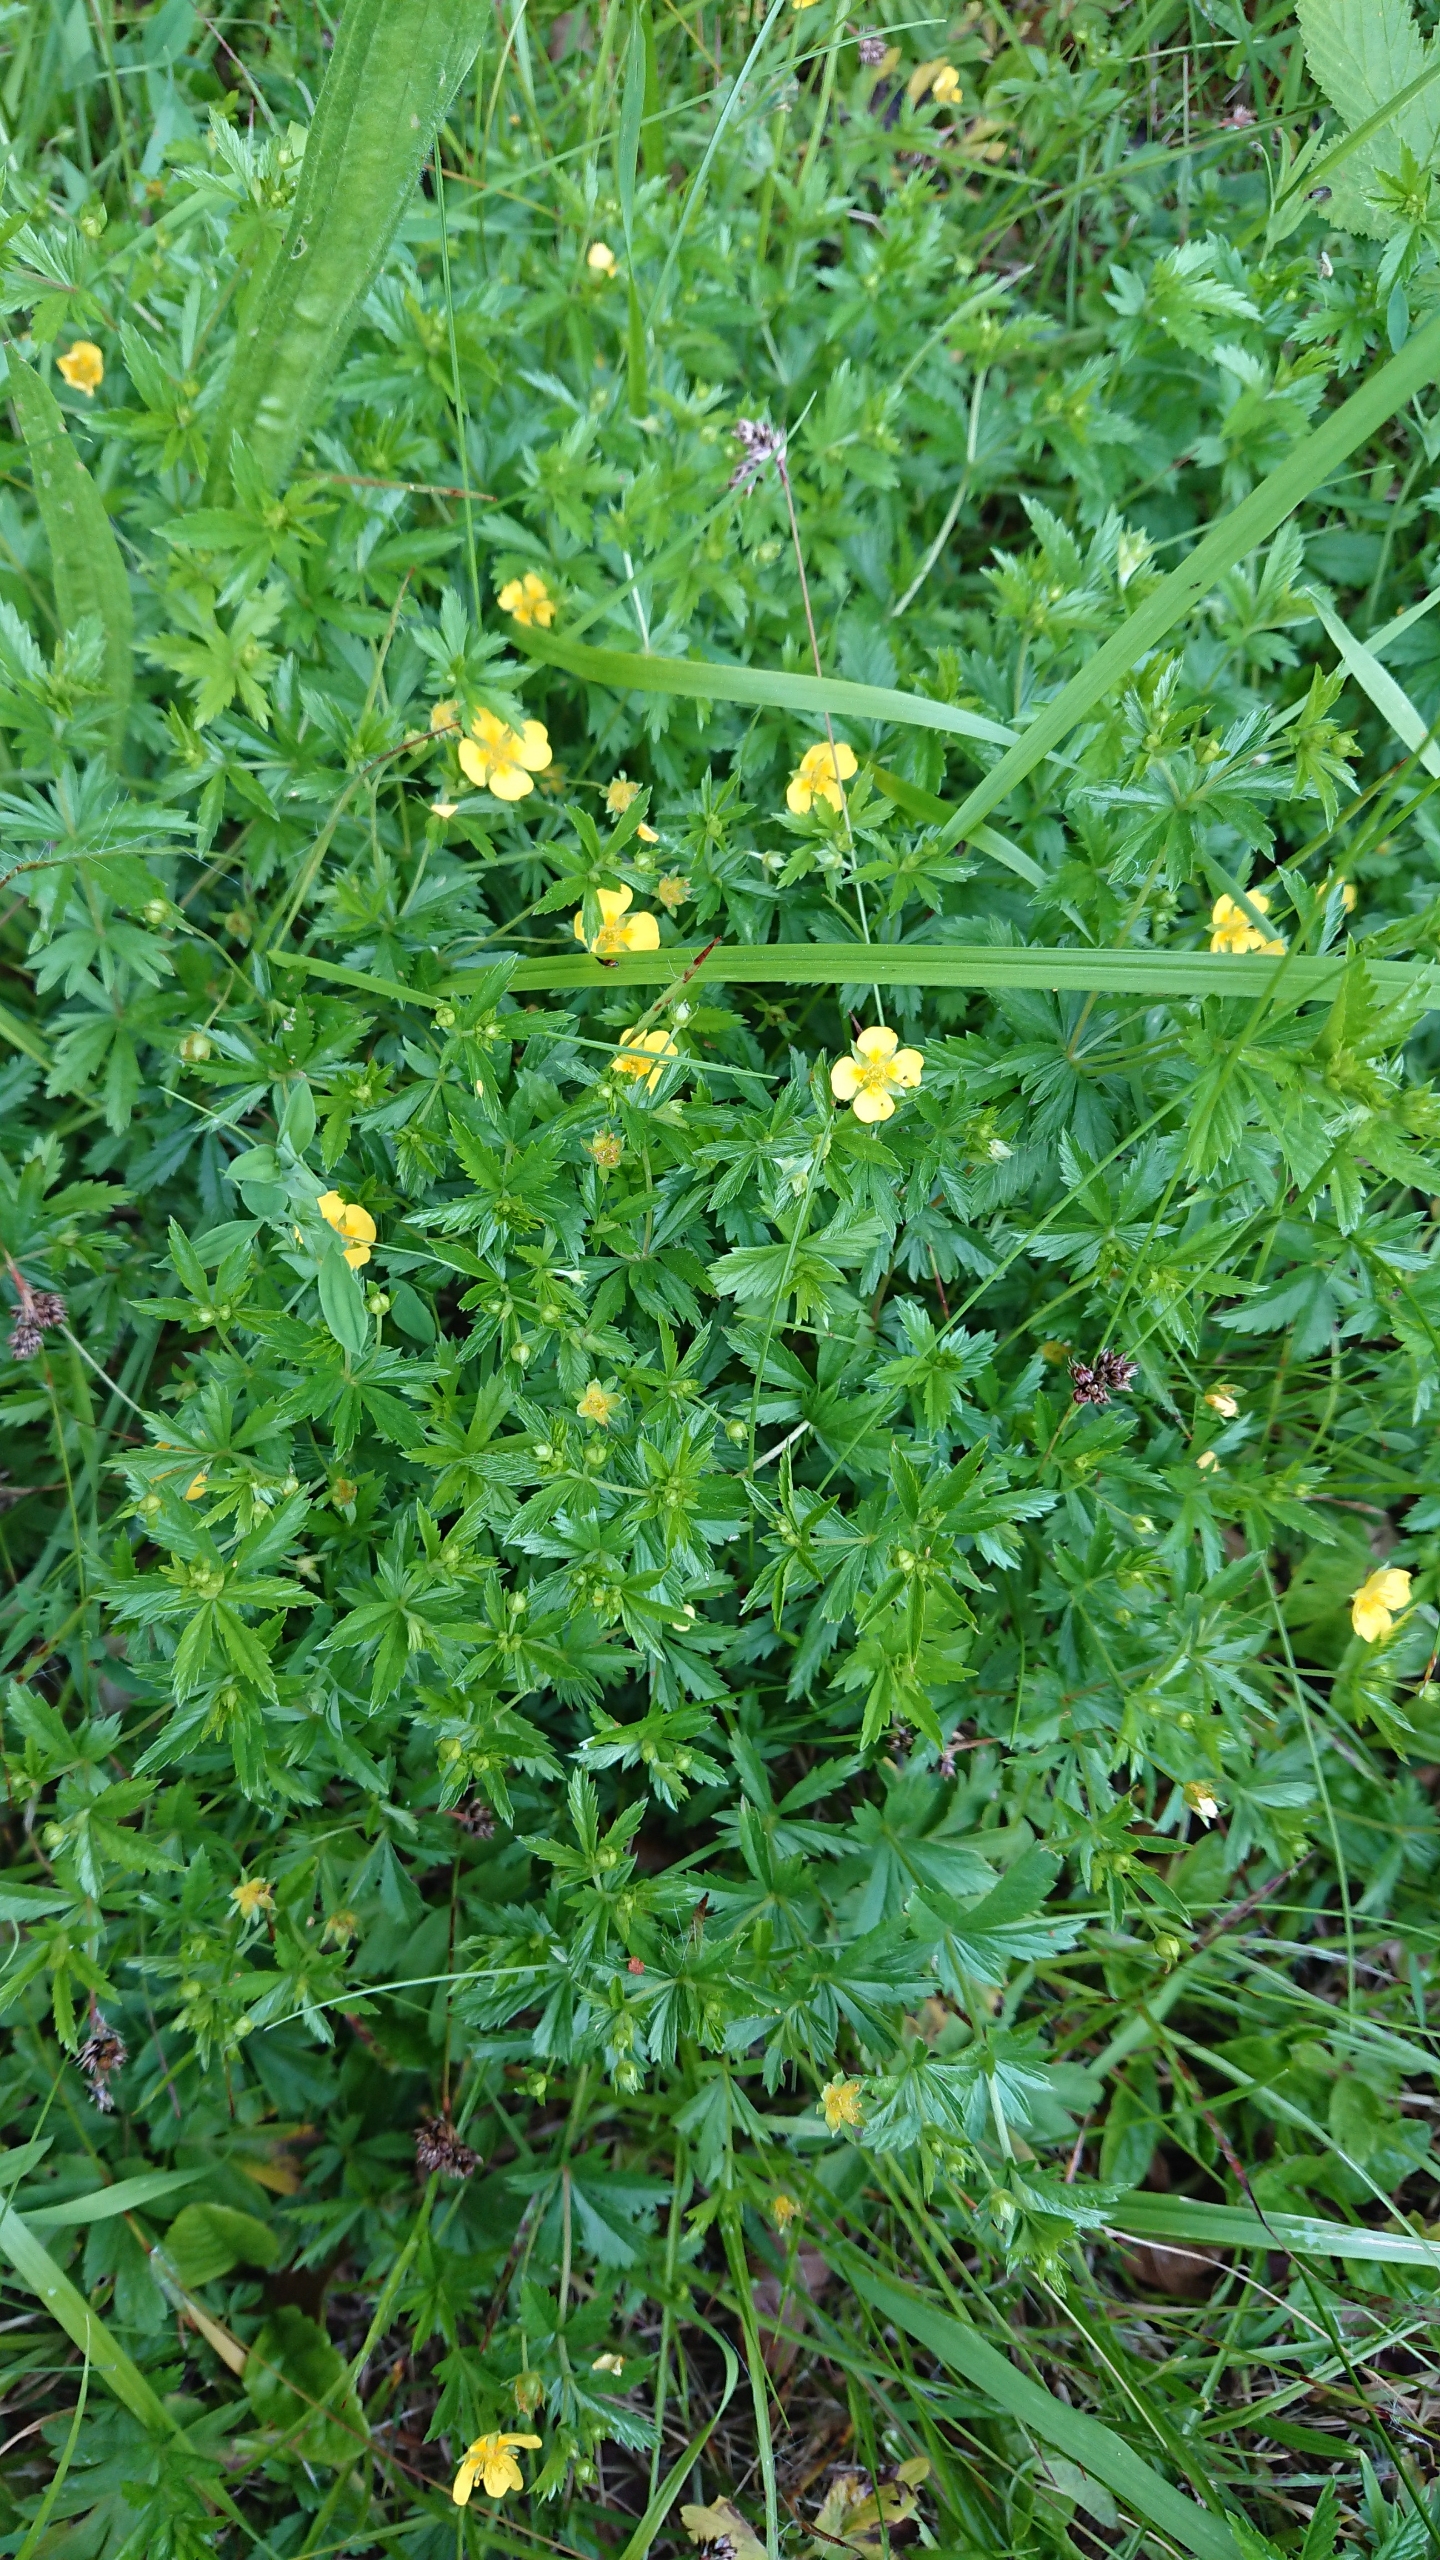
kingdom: Plantae
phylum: Tracheophyta
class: Magnoliopsida
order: Rosales
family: Rosaceae
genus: Potentilla
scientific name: Potentilla erecta
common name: Tormentil
